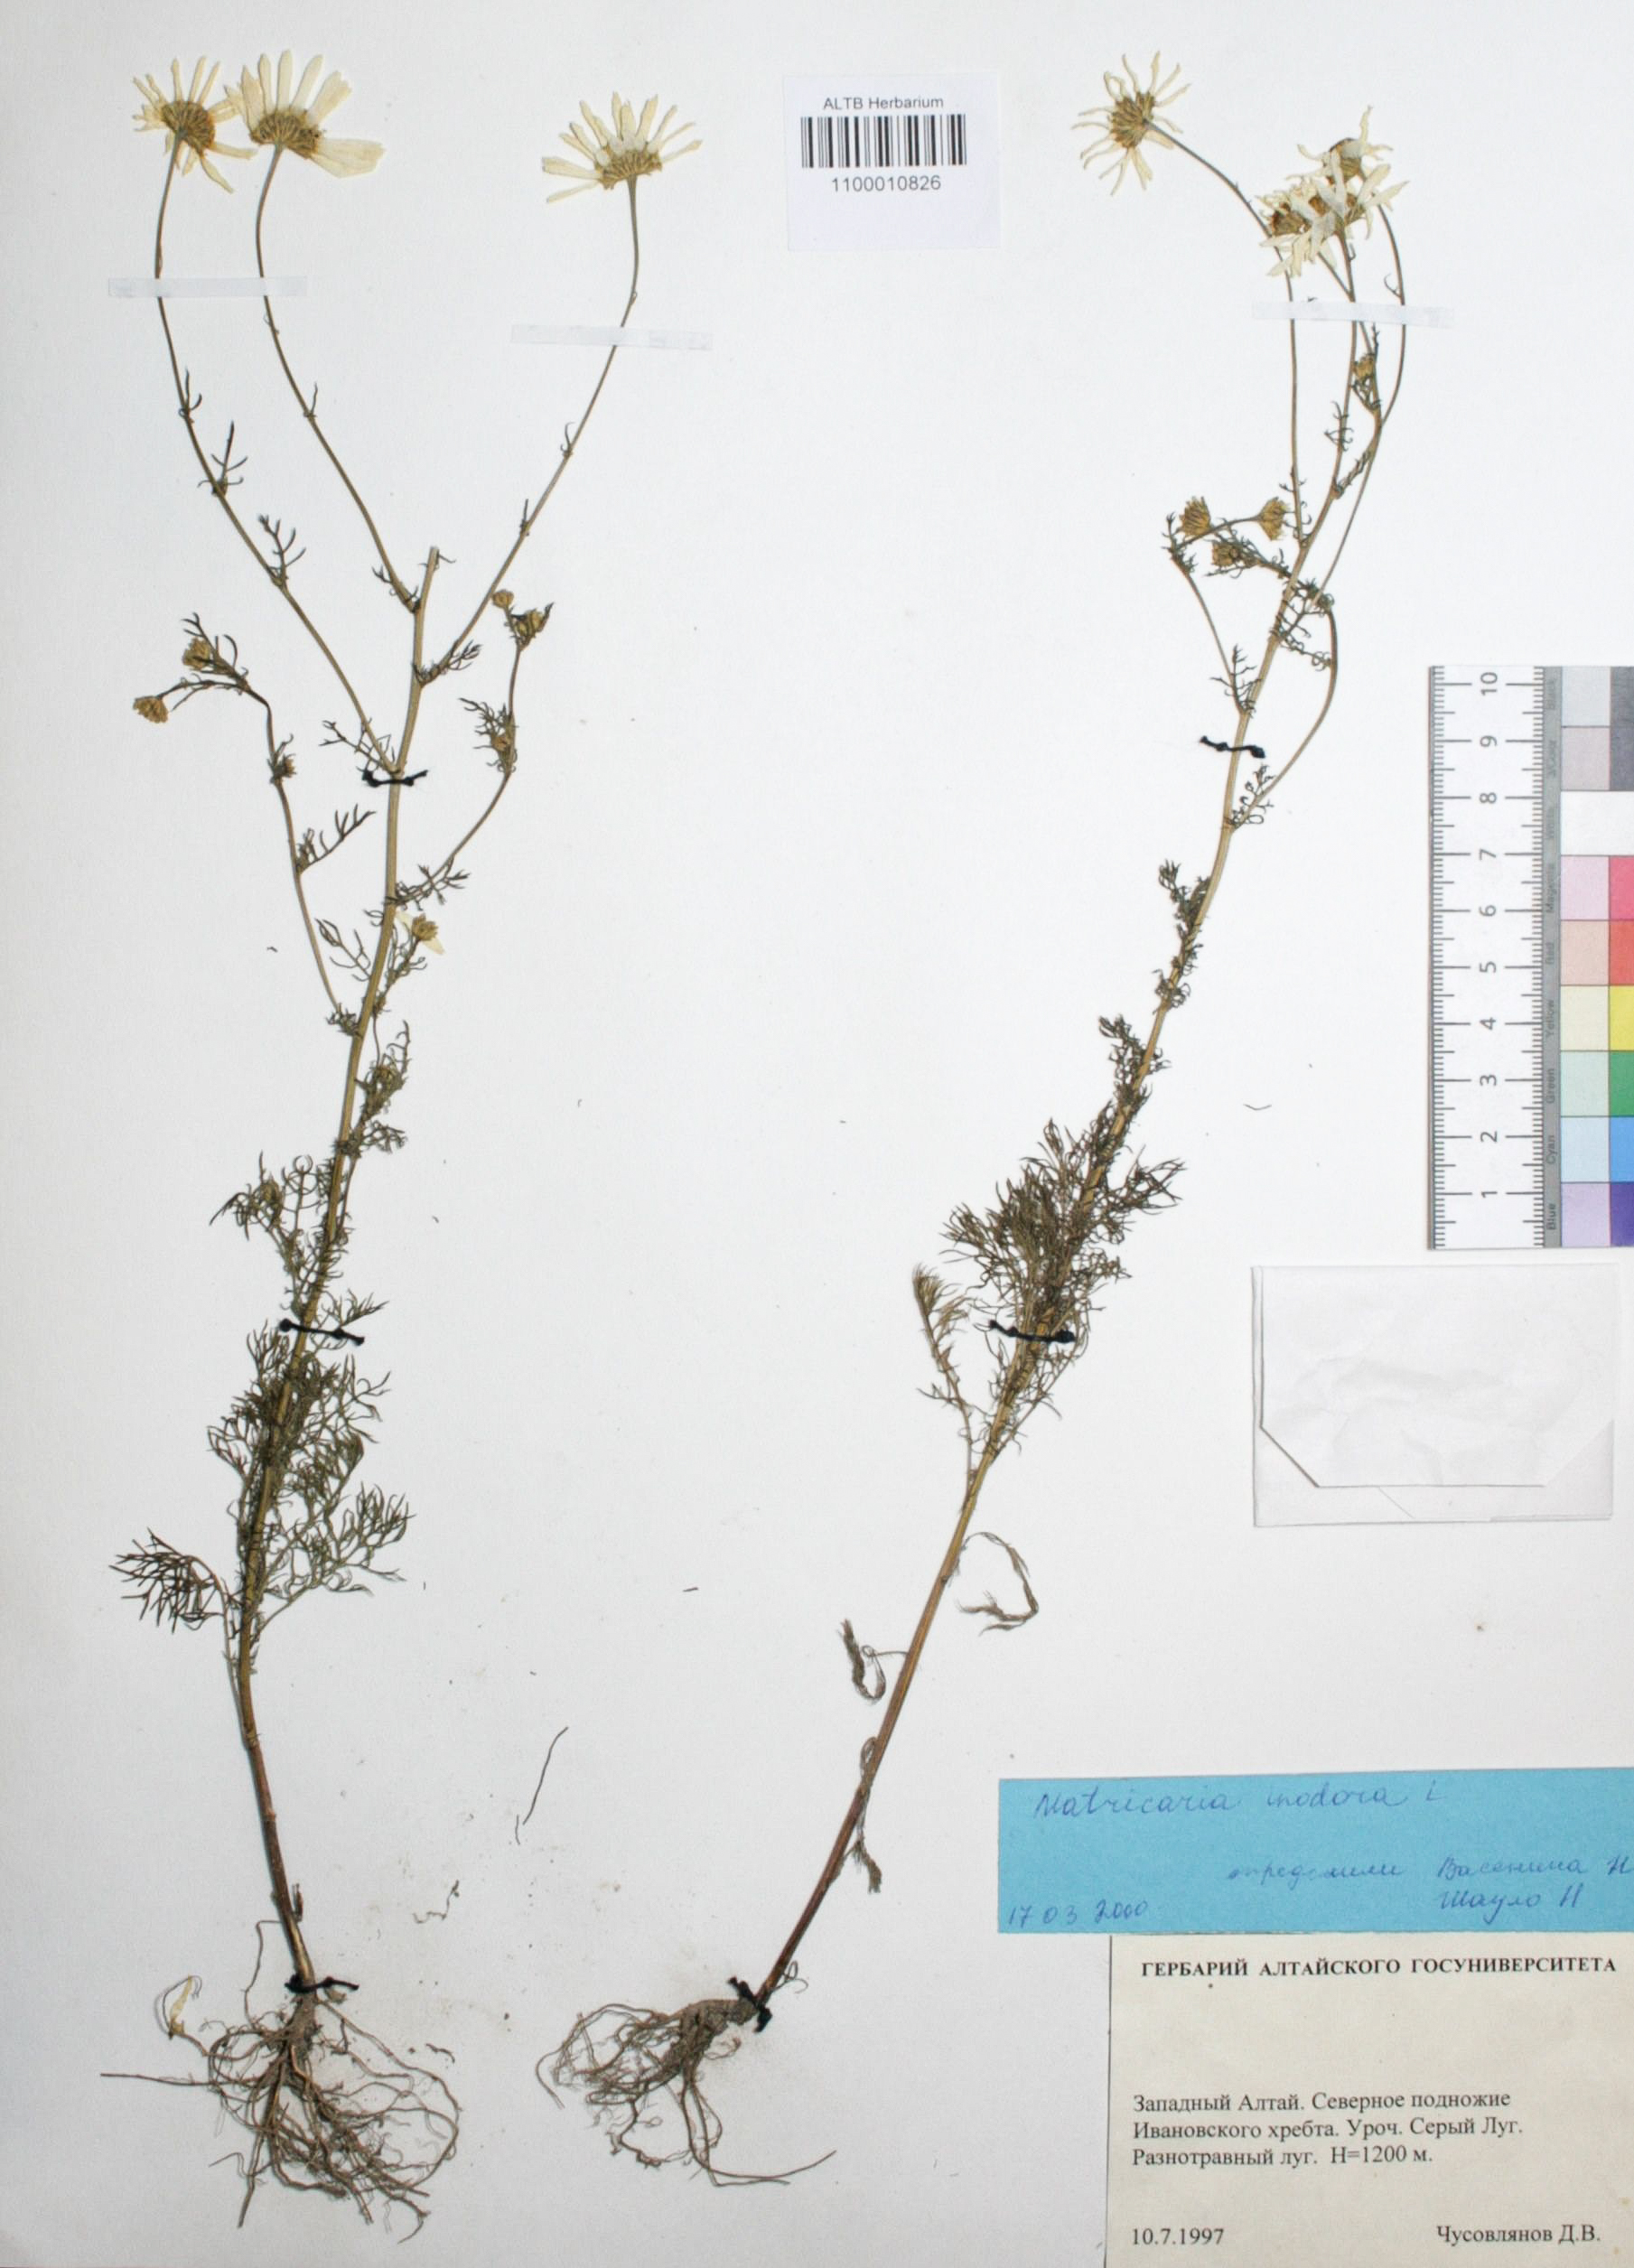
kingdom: Plantae
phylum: Tracheophyta
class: Magnoliopsida
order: Asterales
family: Asteraceae
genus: Tripleurospermum
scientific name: Tripleurospermum inodorum
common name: Scentless mayweed
